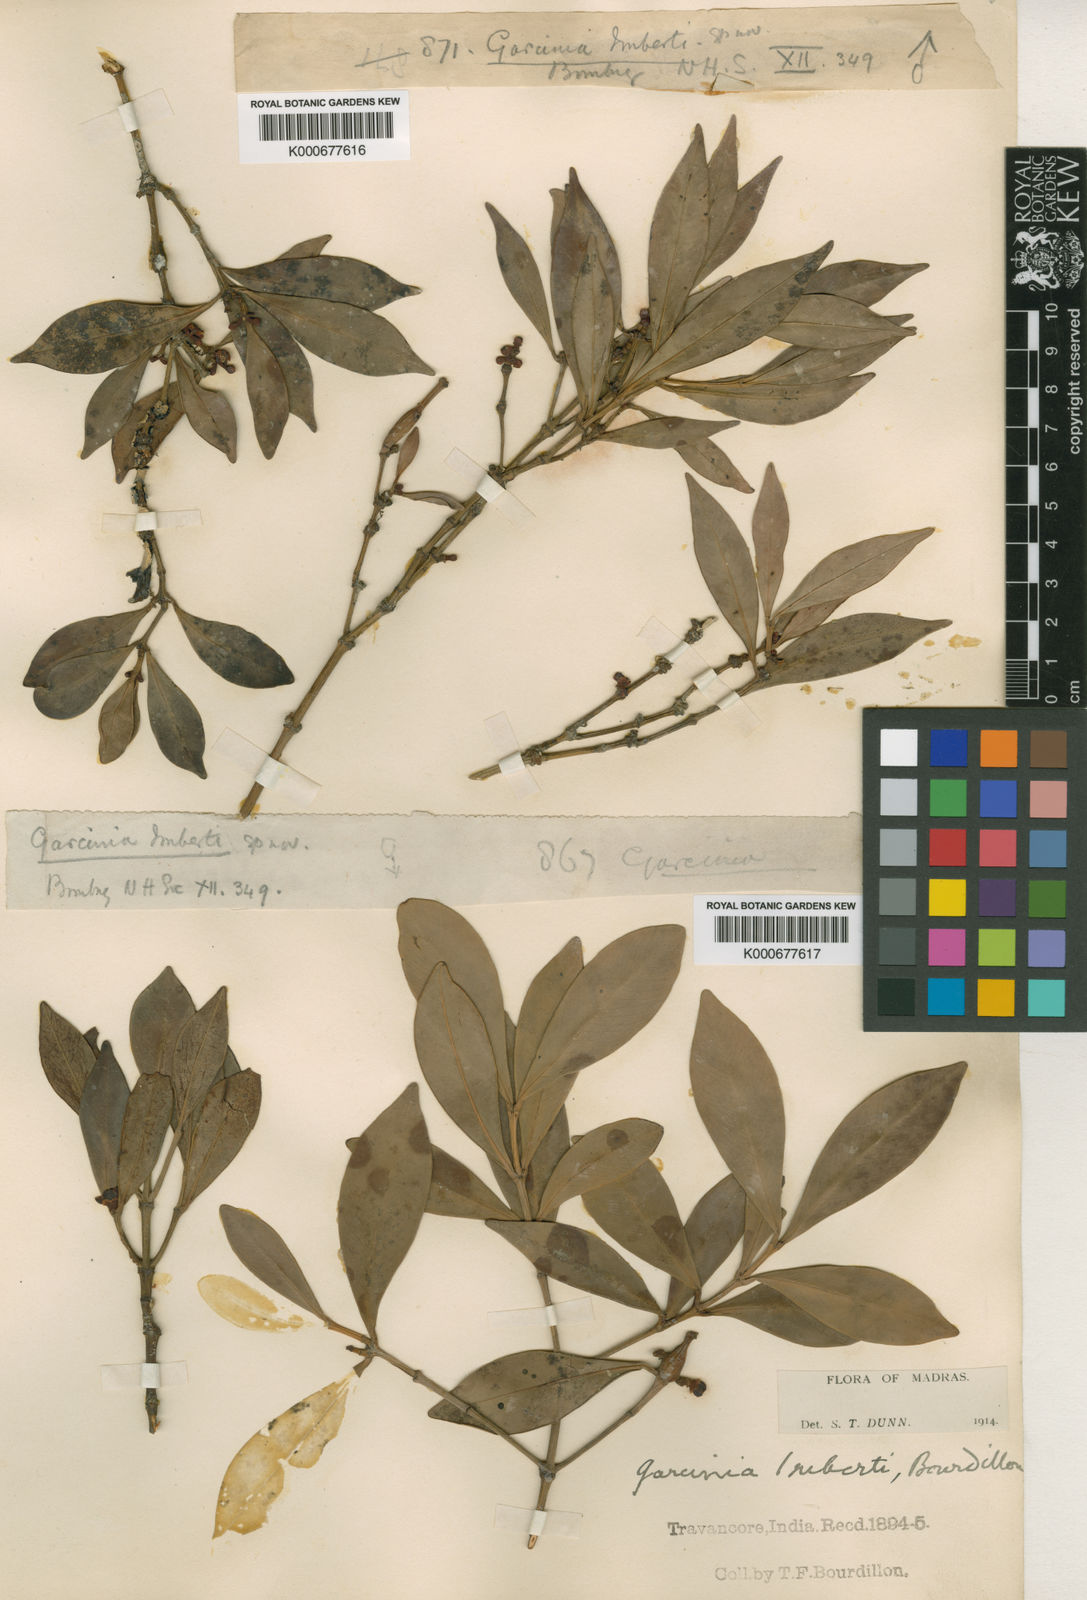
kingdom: Plantae
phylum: Tracheophyta
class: Magnoliopsida
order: Malpighiales
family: Clusiaceae
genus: Garcinia
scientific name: Garcinia imbertii
